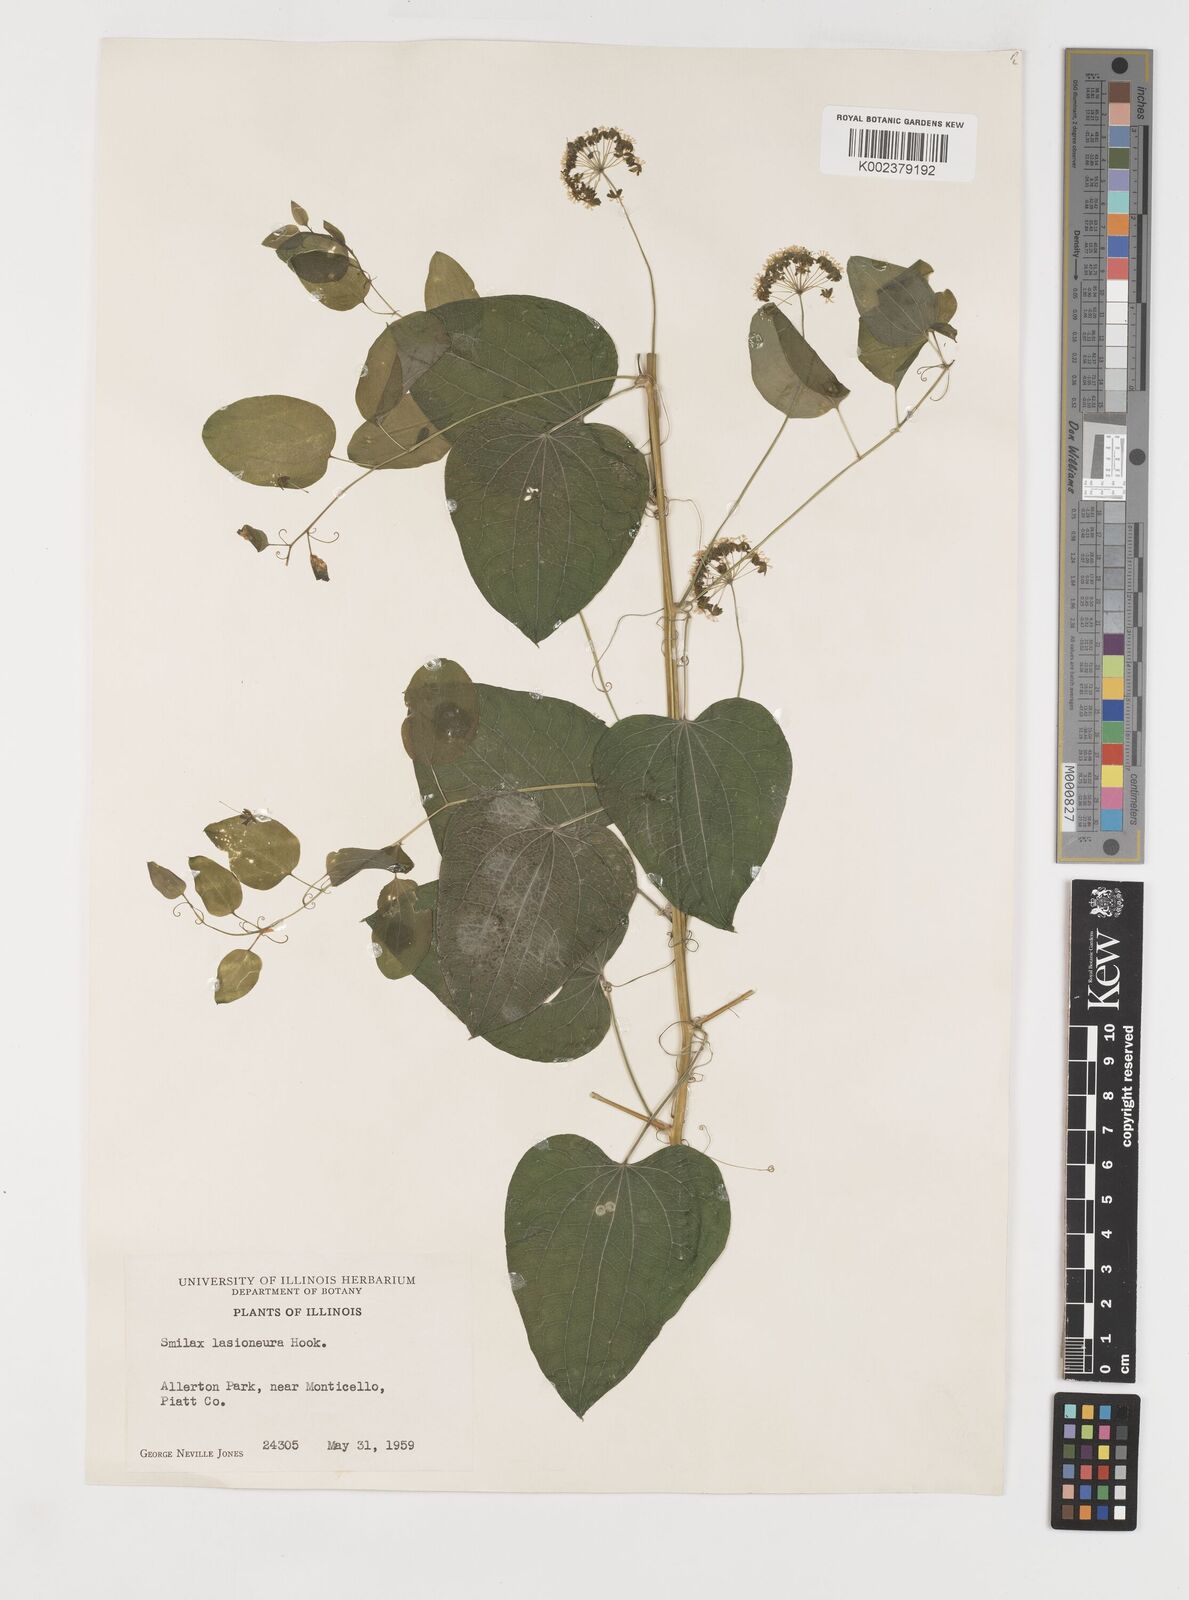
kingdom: Plantae
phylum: Tracheophyta
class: Liliopsida
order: Liliales
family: Smilacaceae
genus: Smilax
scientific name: Smilax lasioneura
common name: Blue ridge carrionflower
